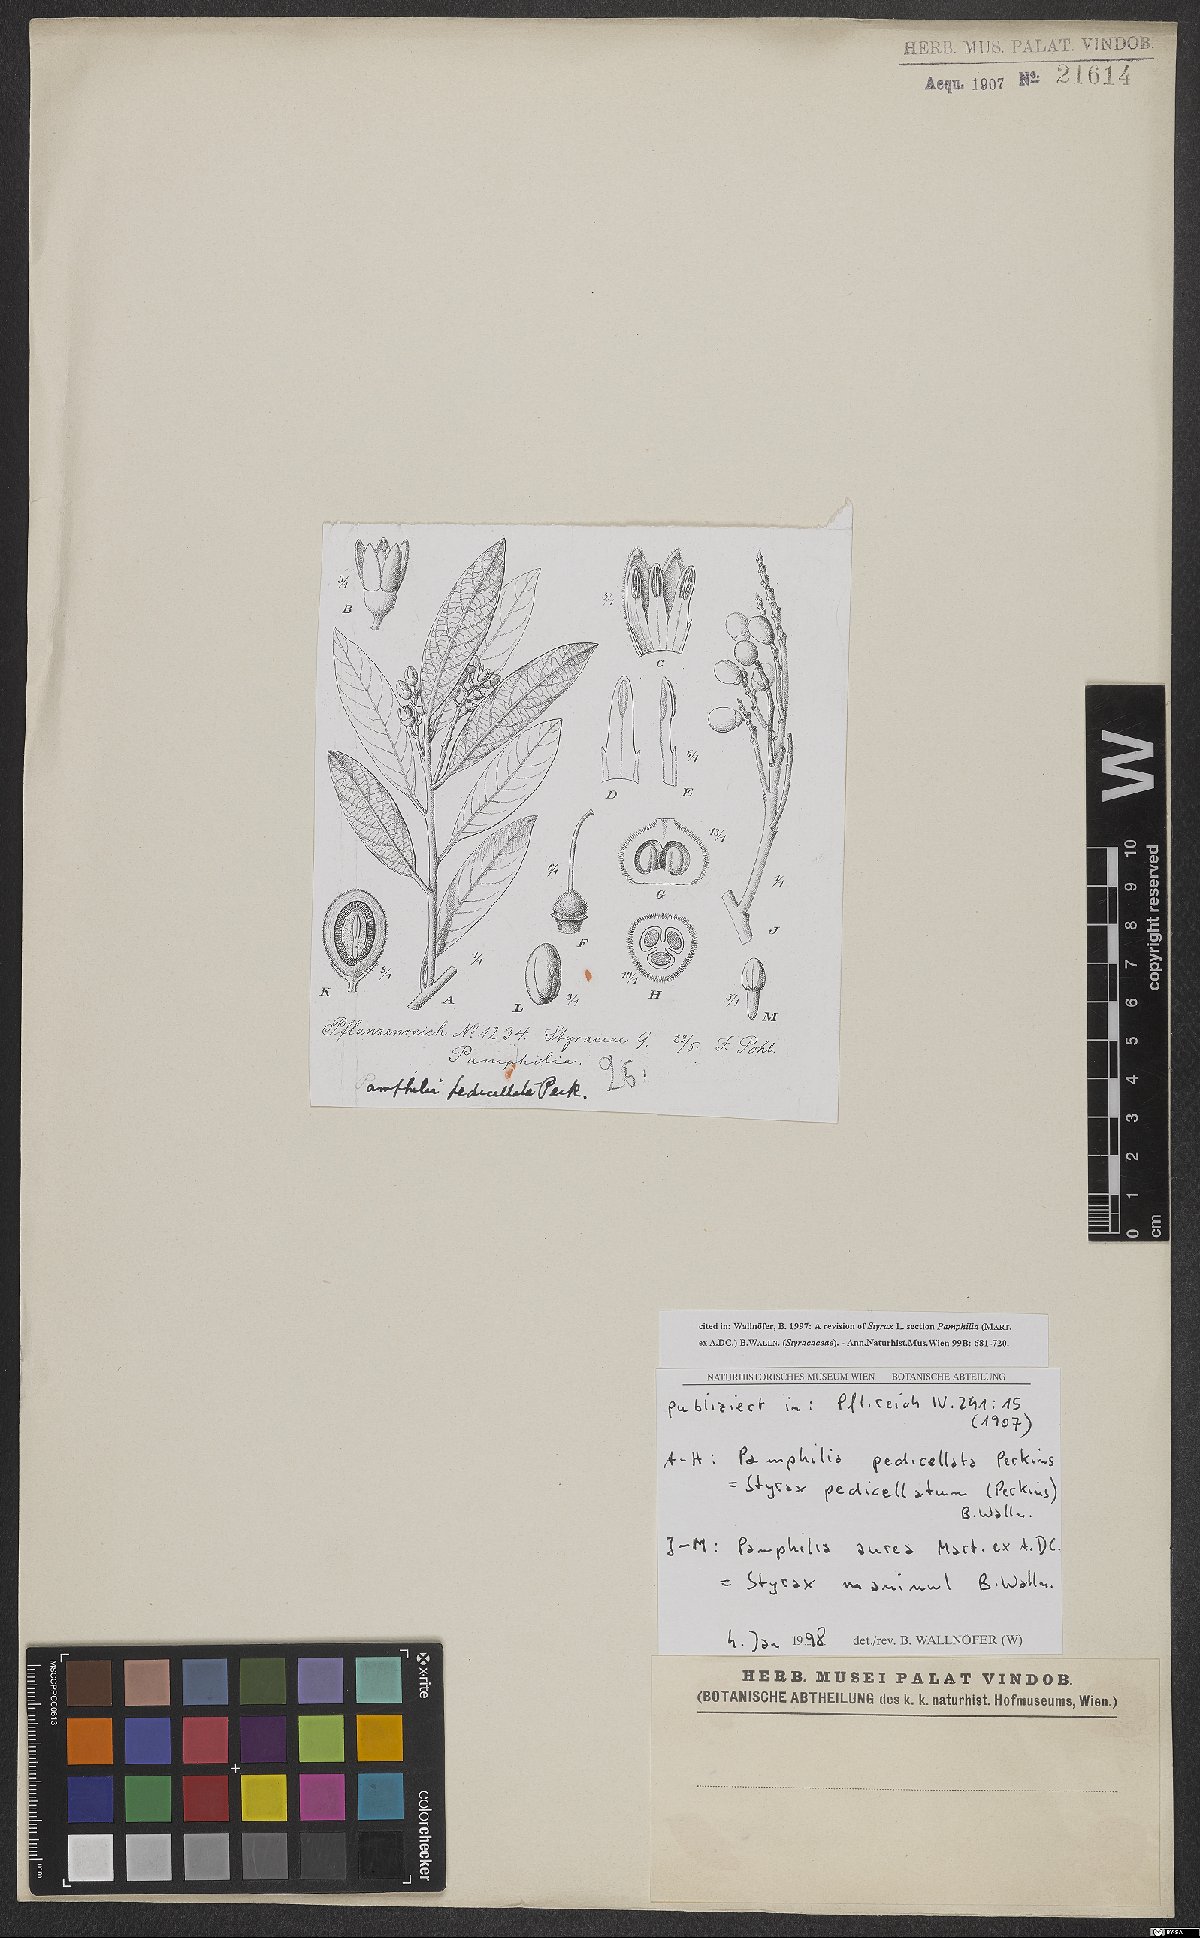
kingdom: Plantae
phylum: Tracheophyta
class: Magnoliopsida
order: Ericales
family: Styracaceae
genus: Styrax
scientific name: Styrax pedicellatus
